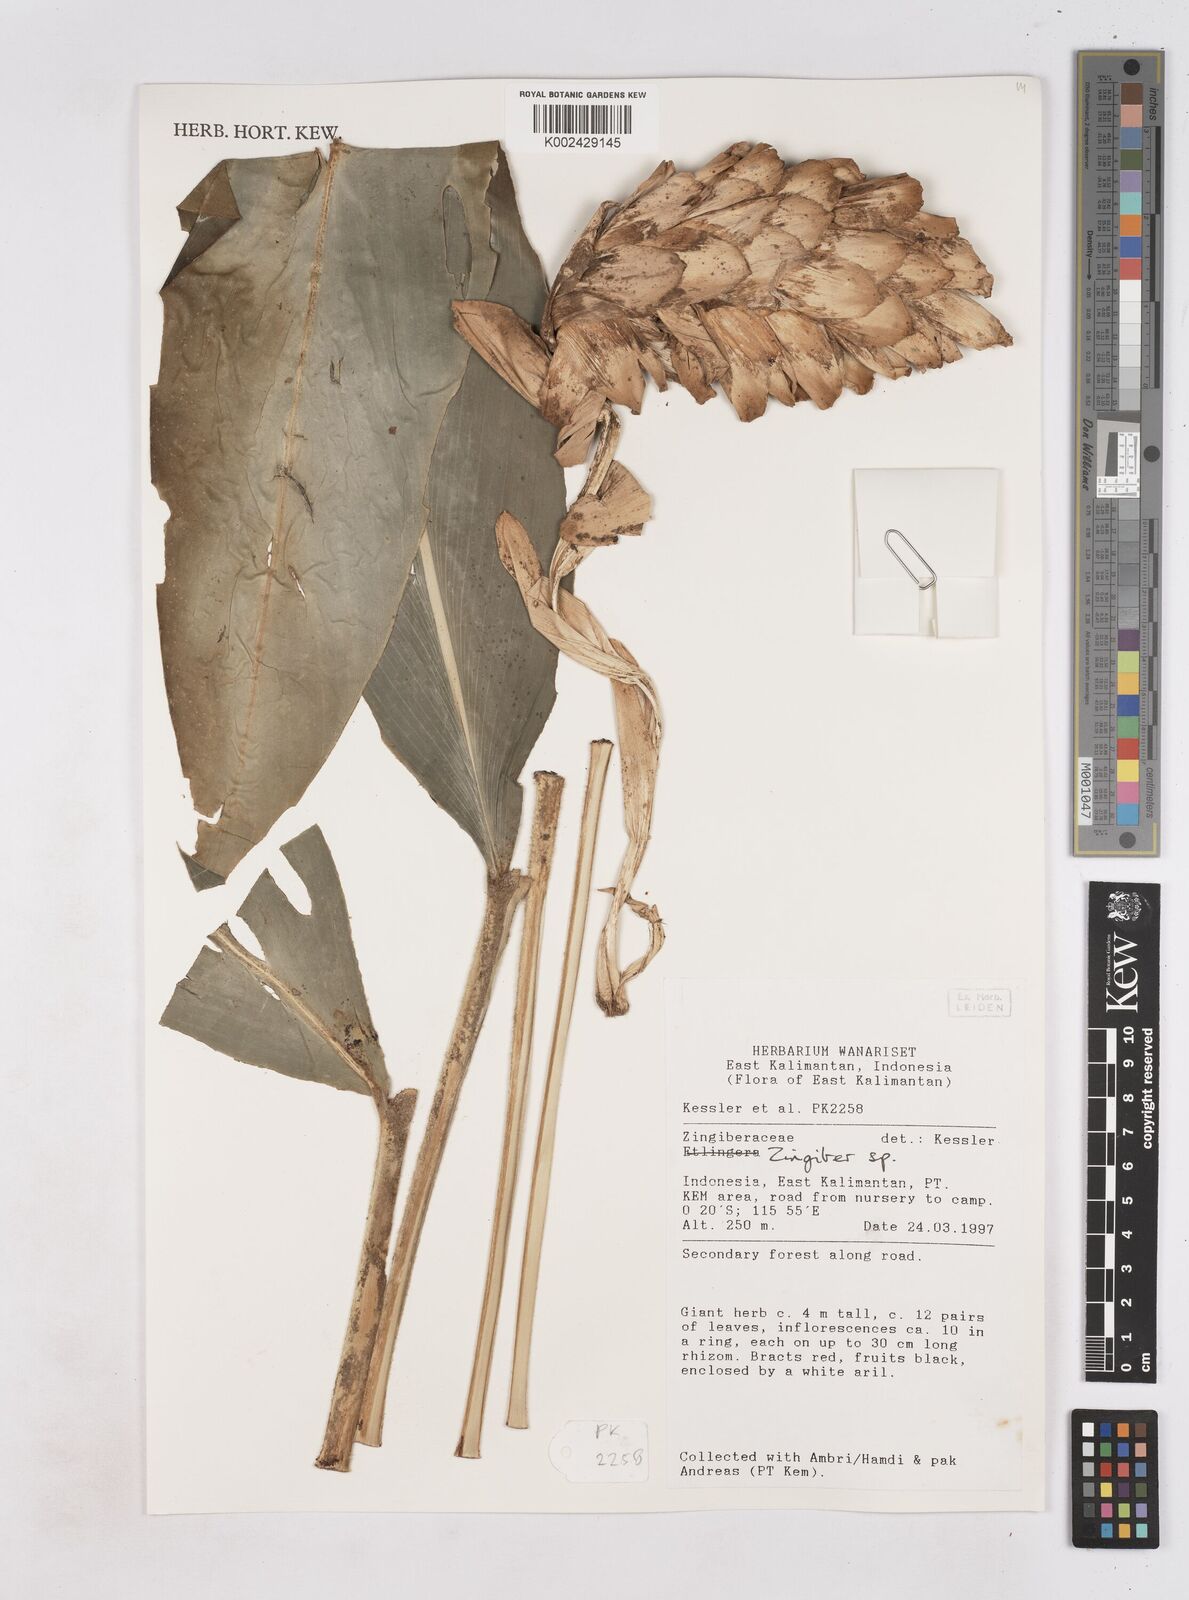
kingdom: Plantae
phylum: Tracheophyta
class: Liliopsida
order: Zingiberales
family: Zingiberaceae
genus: Zingiber
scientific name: Zingiber
